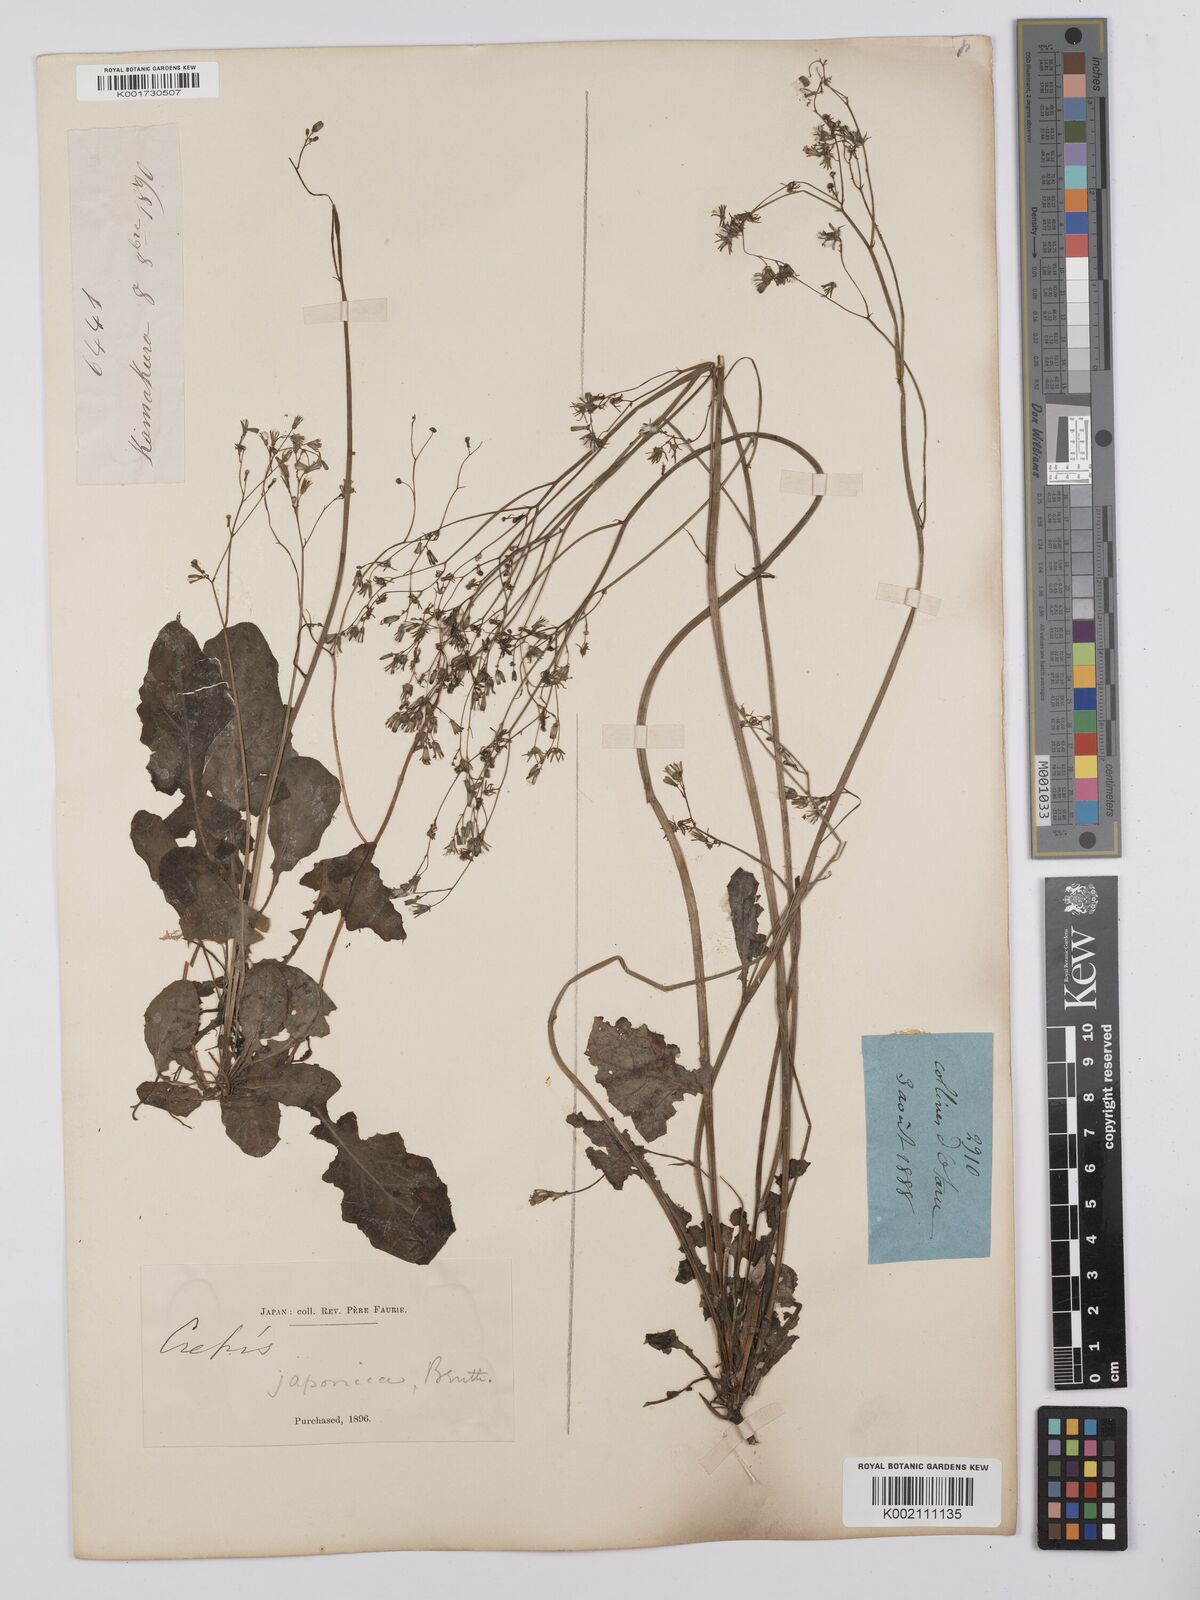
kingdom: Plantae
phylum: Tracheophyta
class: Magnoliopsida
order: Asterales
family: Asteraceae
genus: Youngia
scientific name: Youngia japonica
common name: Oriental false hawksbeard
